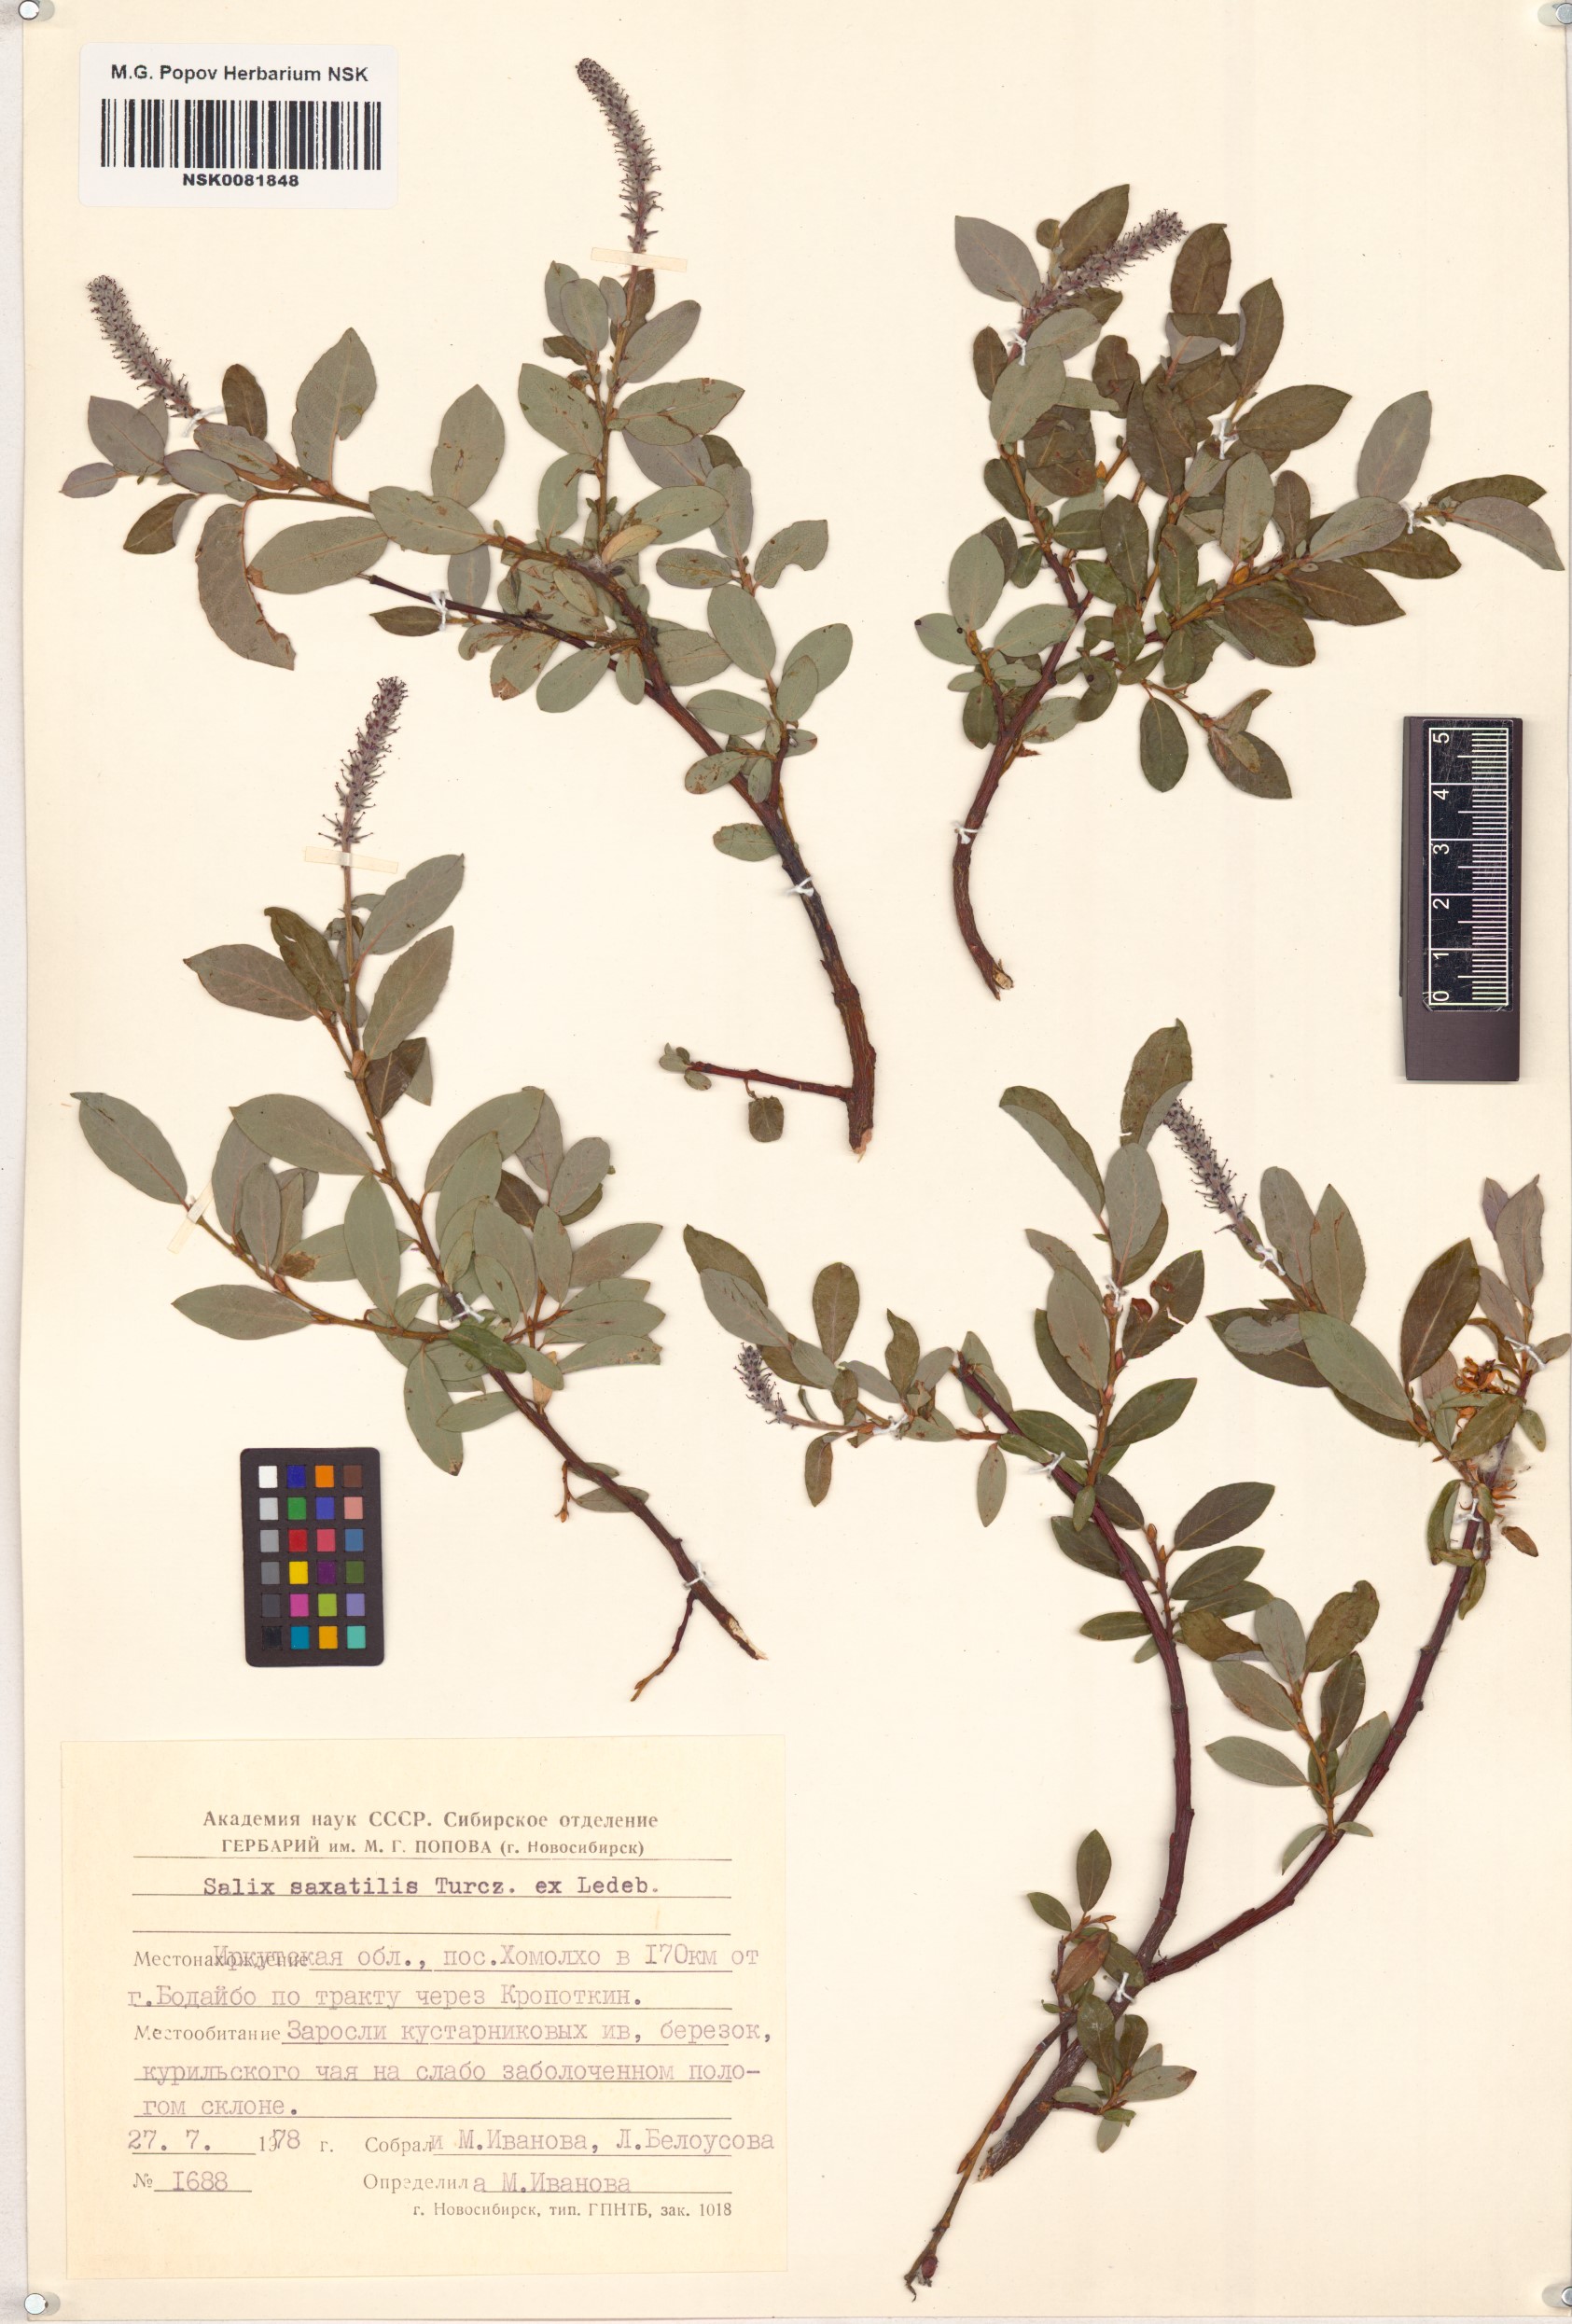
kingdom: Plantae
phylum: Tracheophyta
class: Magnoliopsida
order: Malpighiales
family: Salicaceae
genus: Salix
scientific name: Salix saxatilis
